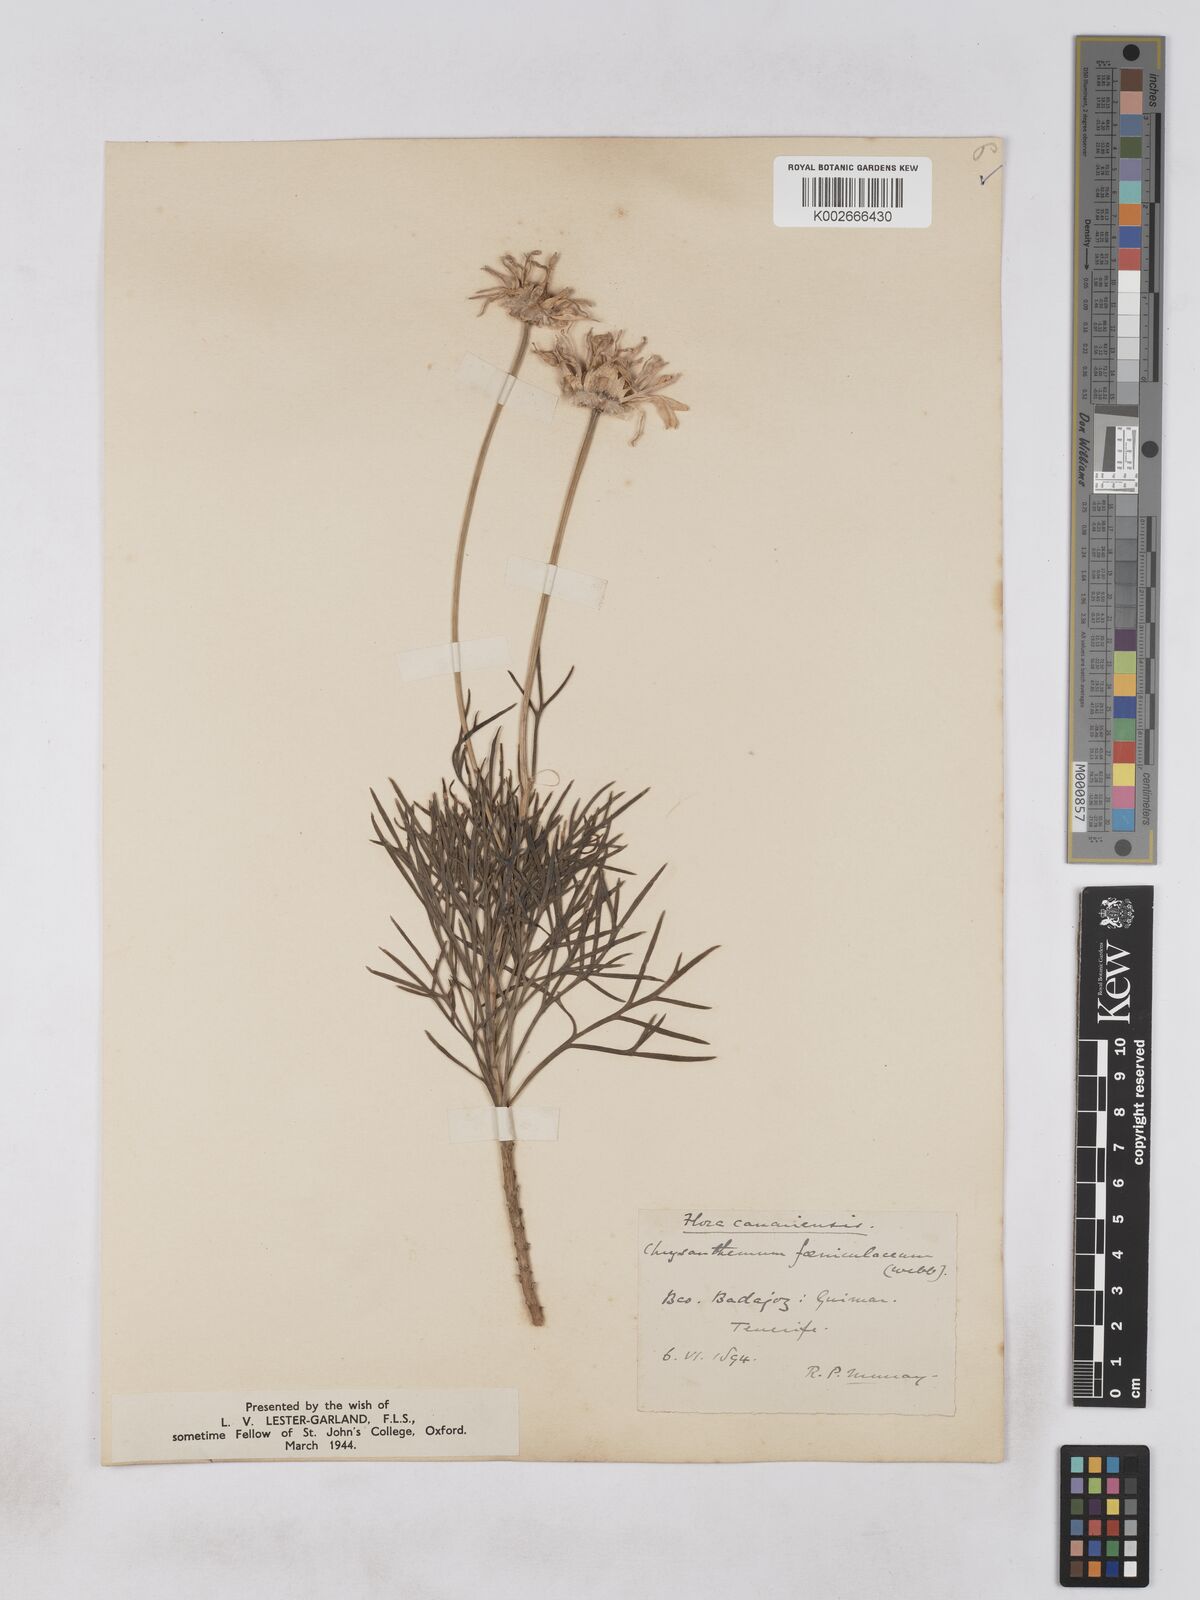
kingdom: Plantae
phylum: Tracheophyta
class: Magnoliopsida
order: Asterales
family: Asteraceae
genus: Argyranthemum
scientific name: Argyranthemum foeniculaceum
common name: Canary island marguerite
